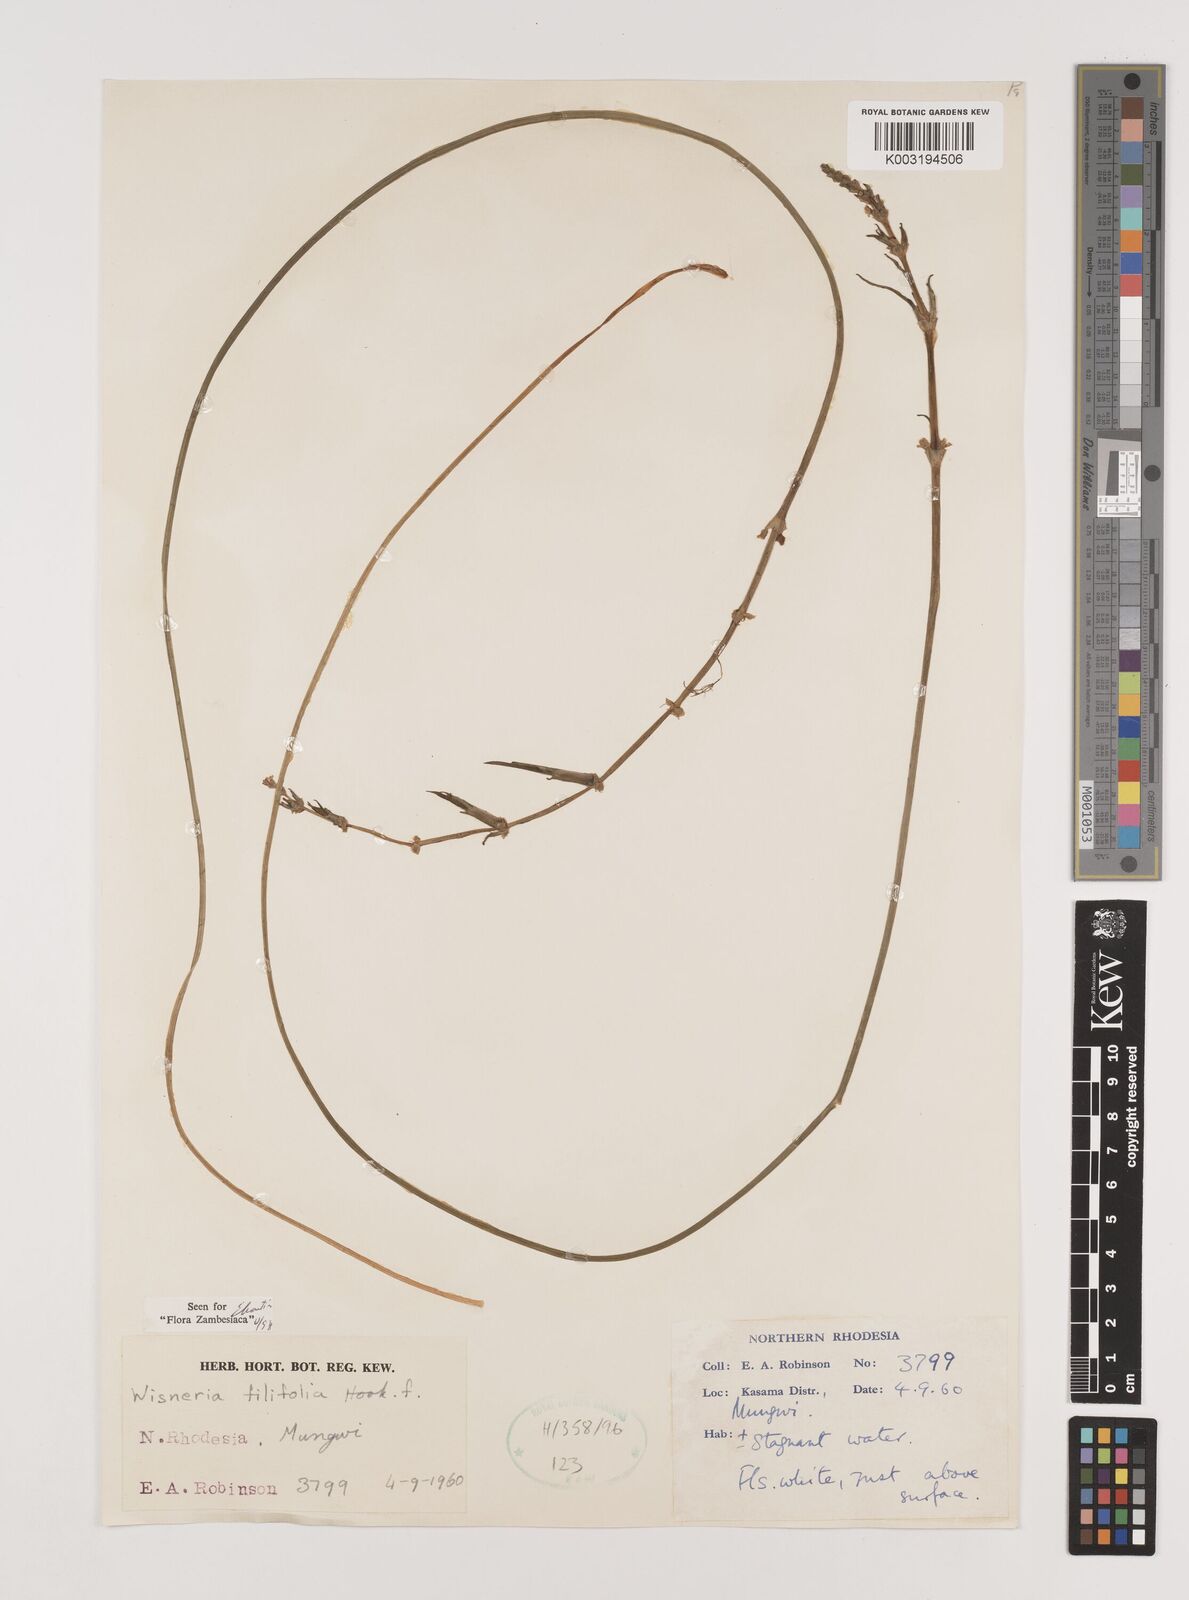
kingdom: Plantae
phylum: Tracheophyta
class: Liliopsida
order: Alismatales
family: Alismataceae
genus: Wiesneria
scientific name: Wiesneria filifolia
